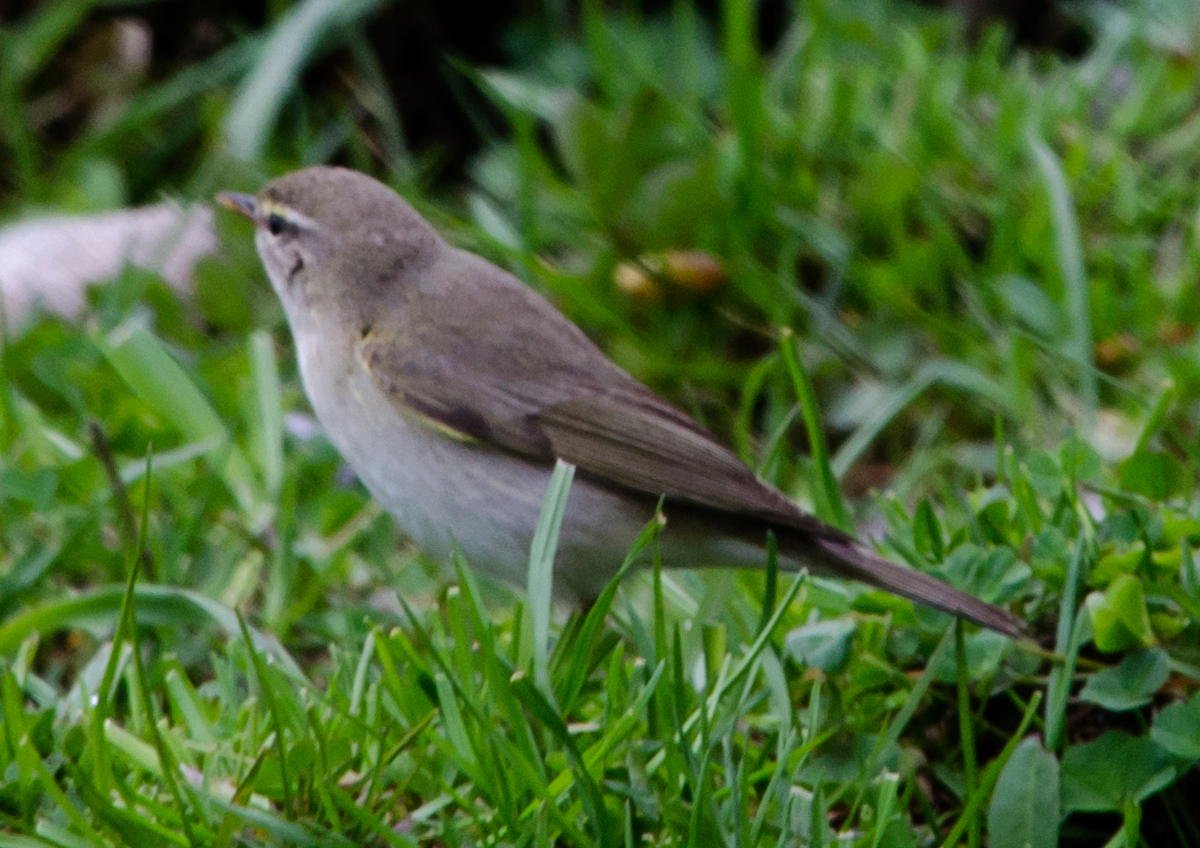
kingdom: Animalia
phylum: Chordata
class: Aves
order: Passeriformes
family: Phylloscopidae
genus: Phylloscopus
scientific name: Phylloscopus trochilus
